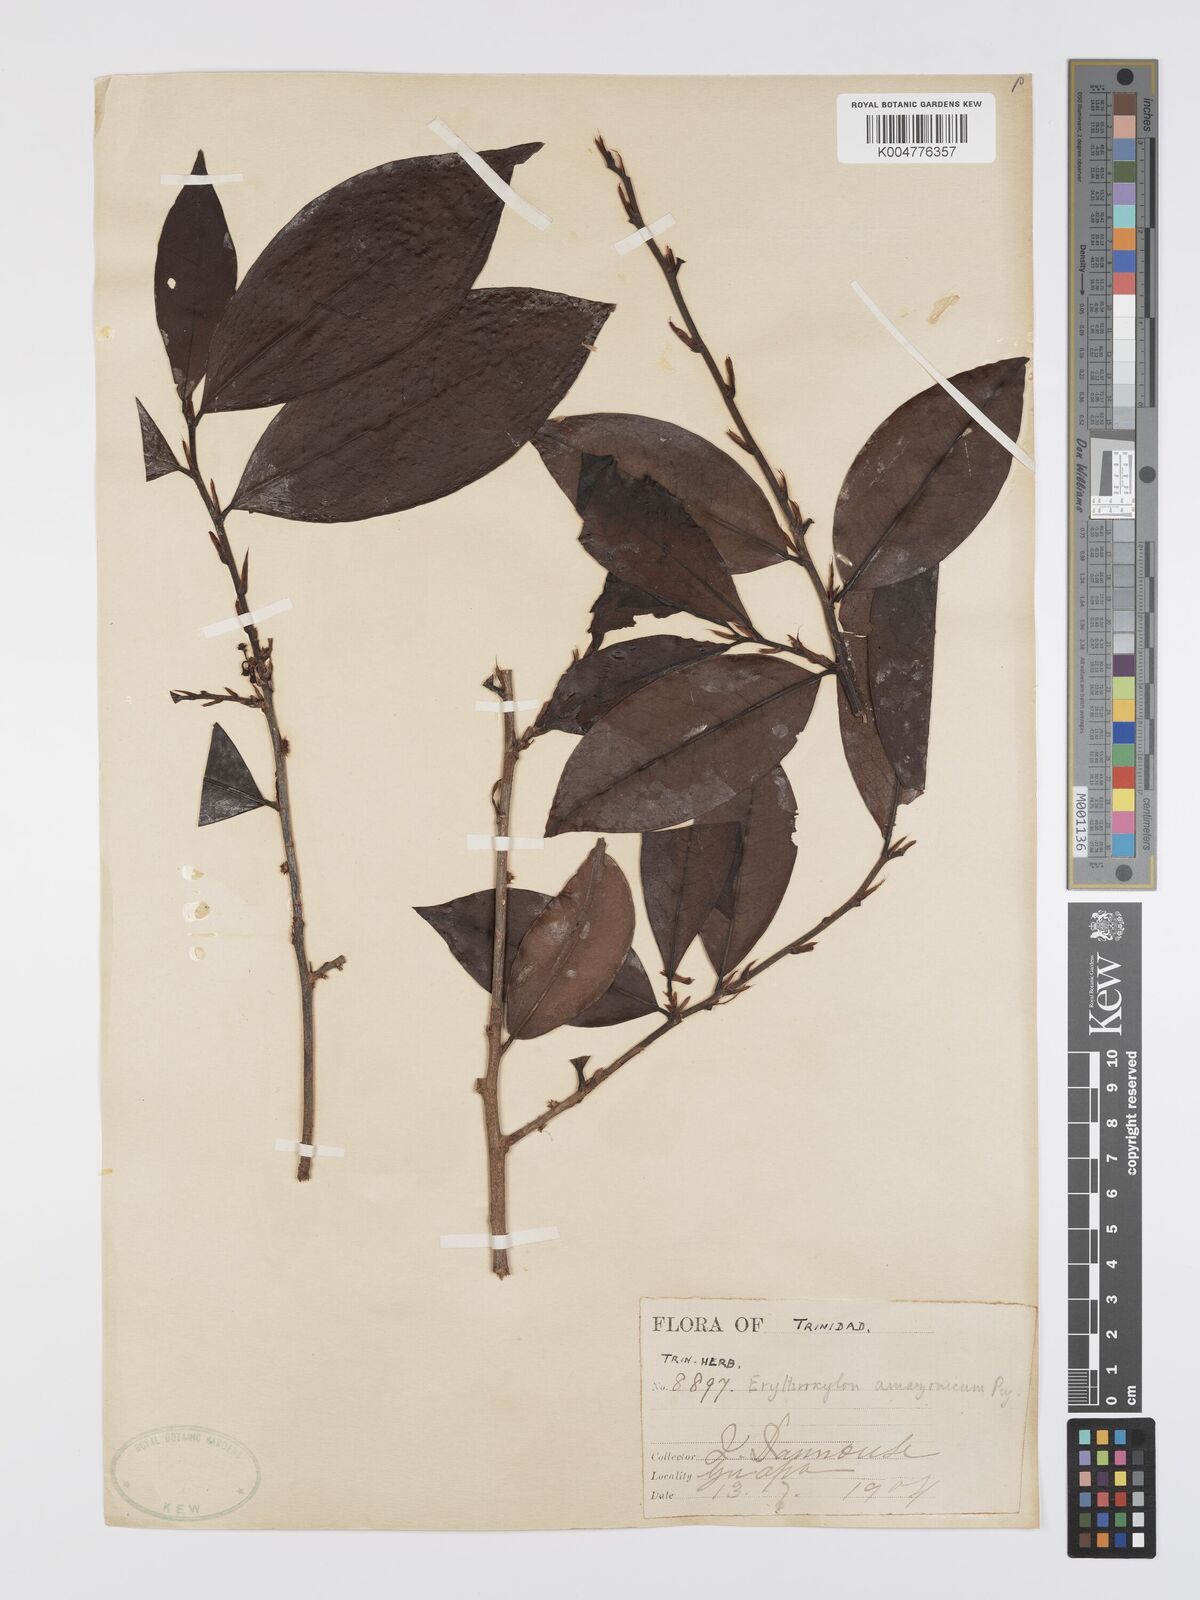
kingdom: Plantae
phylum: Tracheophyta
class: Magnoliopsida
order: Malpighiales
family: Erythroxylaceae
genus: Erythroxylum
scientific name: Erythroxylum amazonicum
